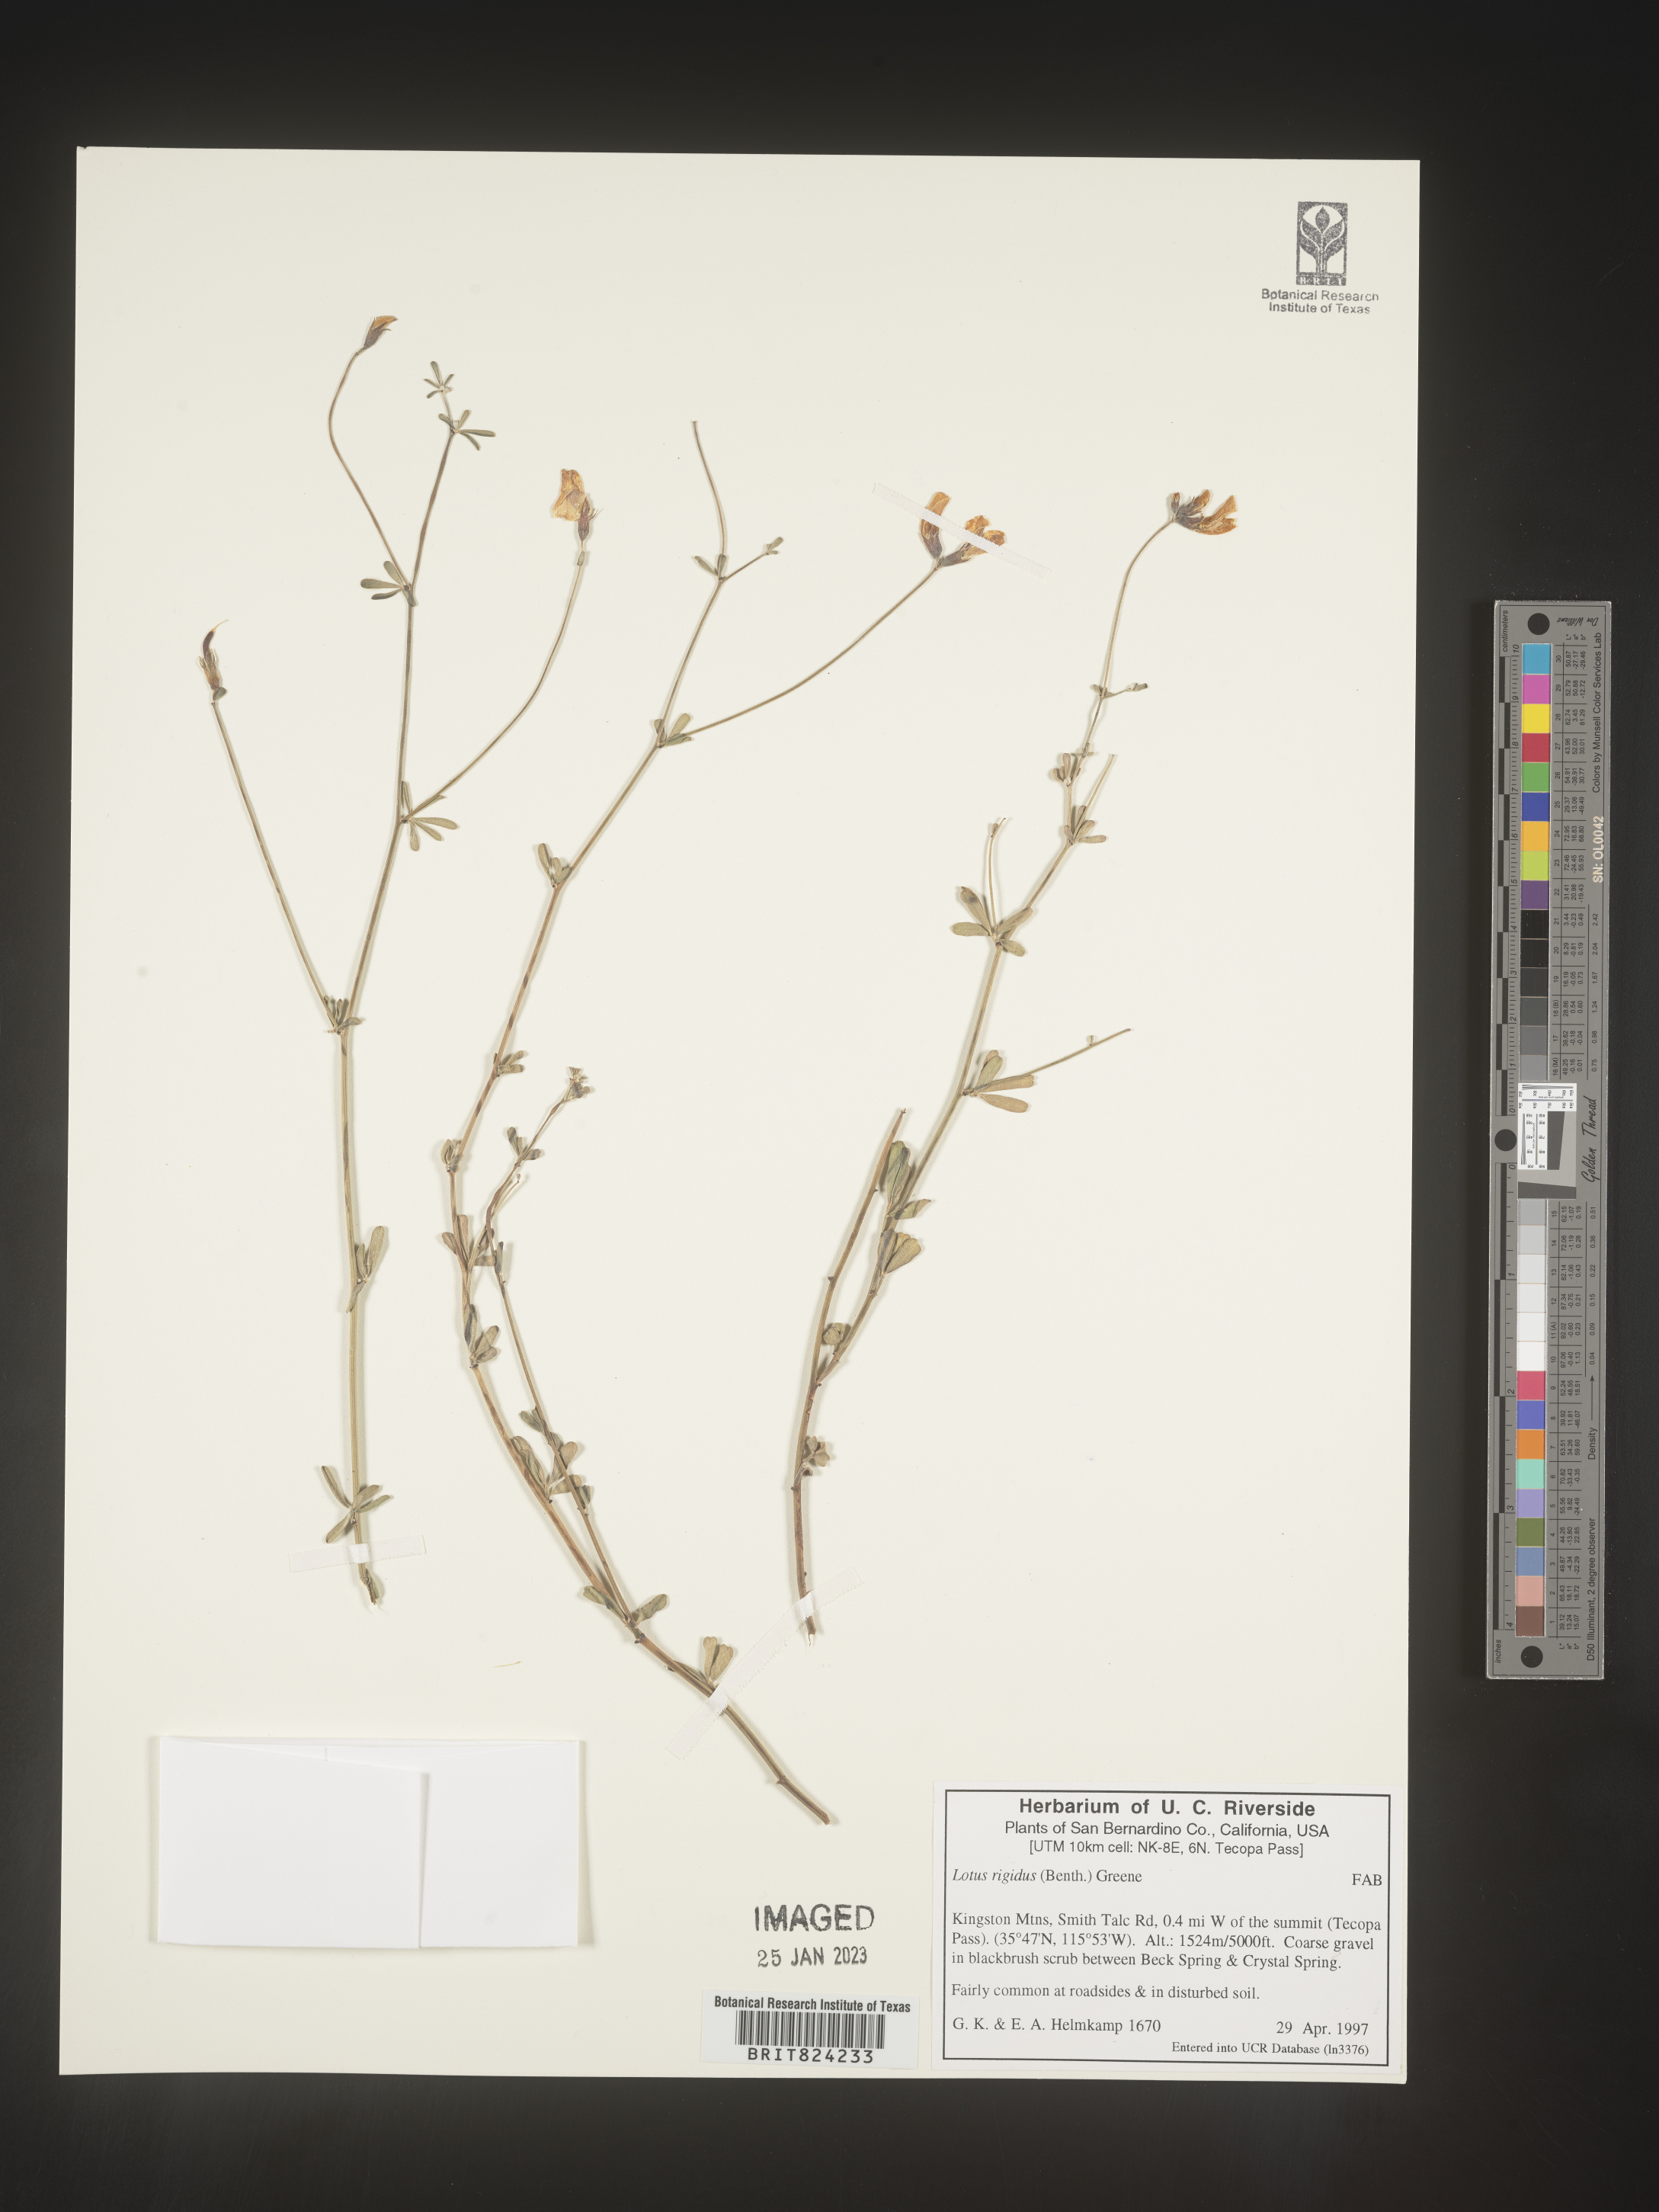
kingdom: Plantae
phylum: Tracheophyta
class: Magnoliopsida
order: Fabales
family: Fabaceae
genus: Lotus
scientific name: Lotus
